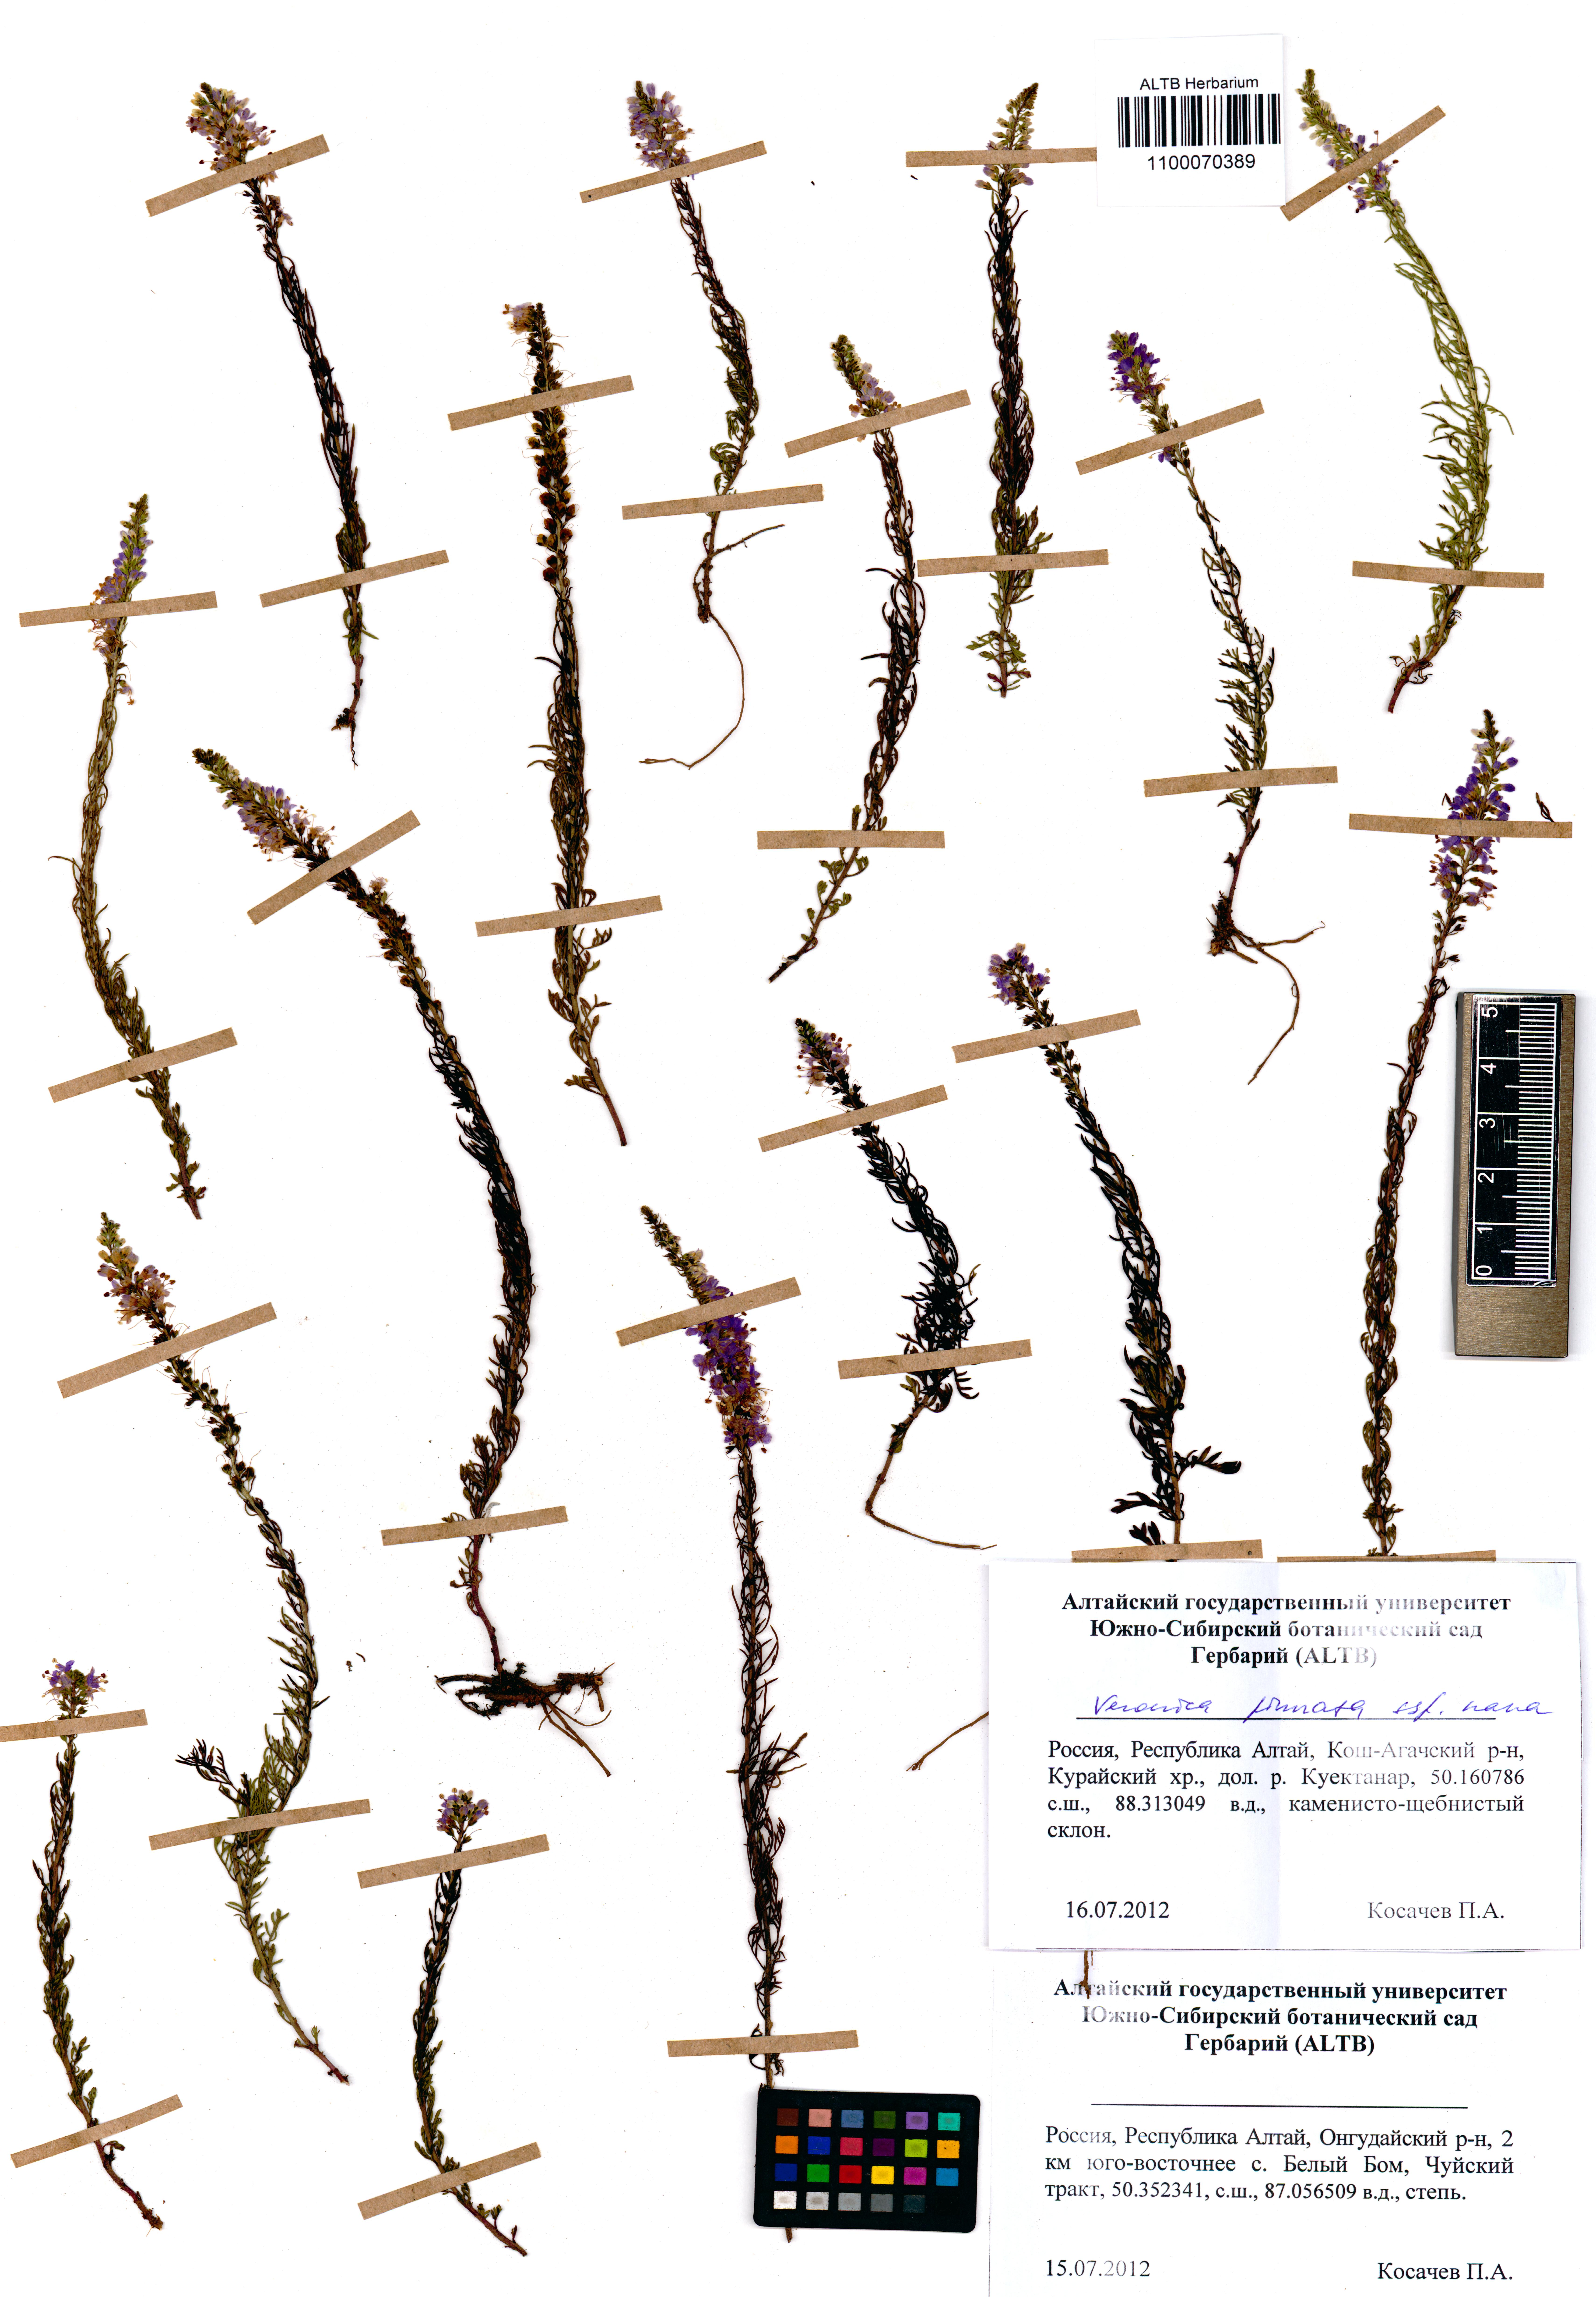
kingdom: Plantae
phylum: Tracheophyta
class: Magnoliopsida
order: Lamiales
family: Plantaginaceae
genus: Veronica
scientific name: Veronica pinnata
